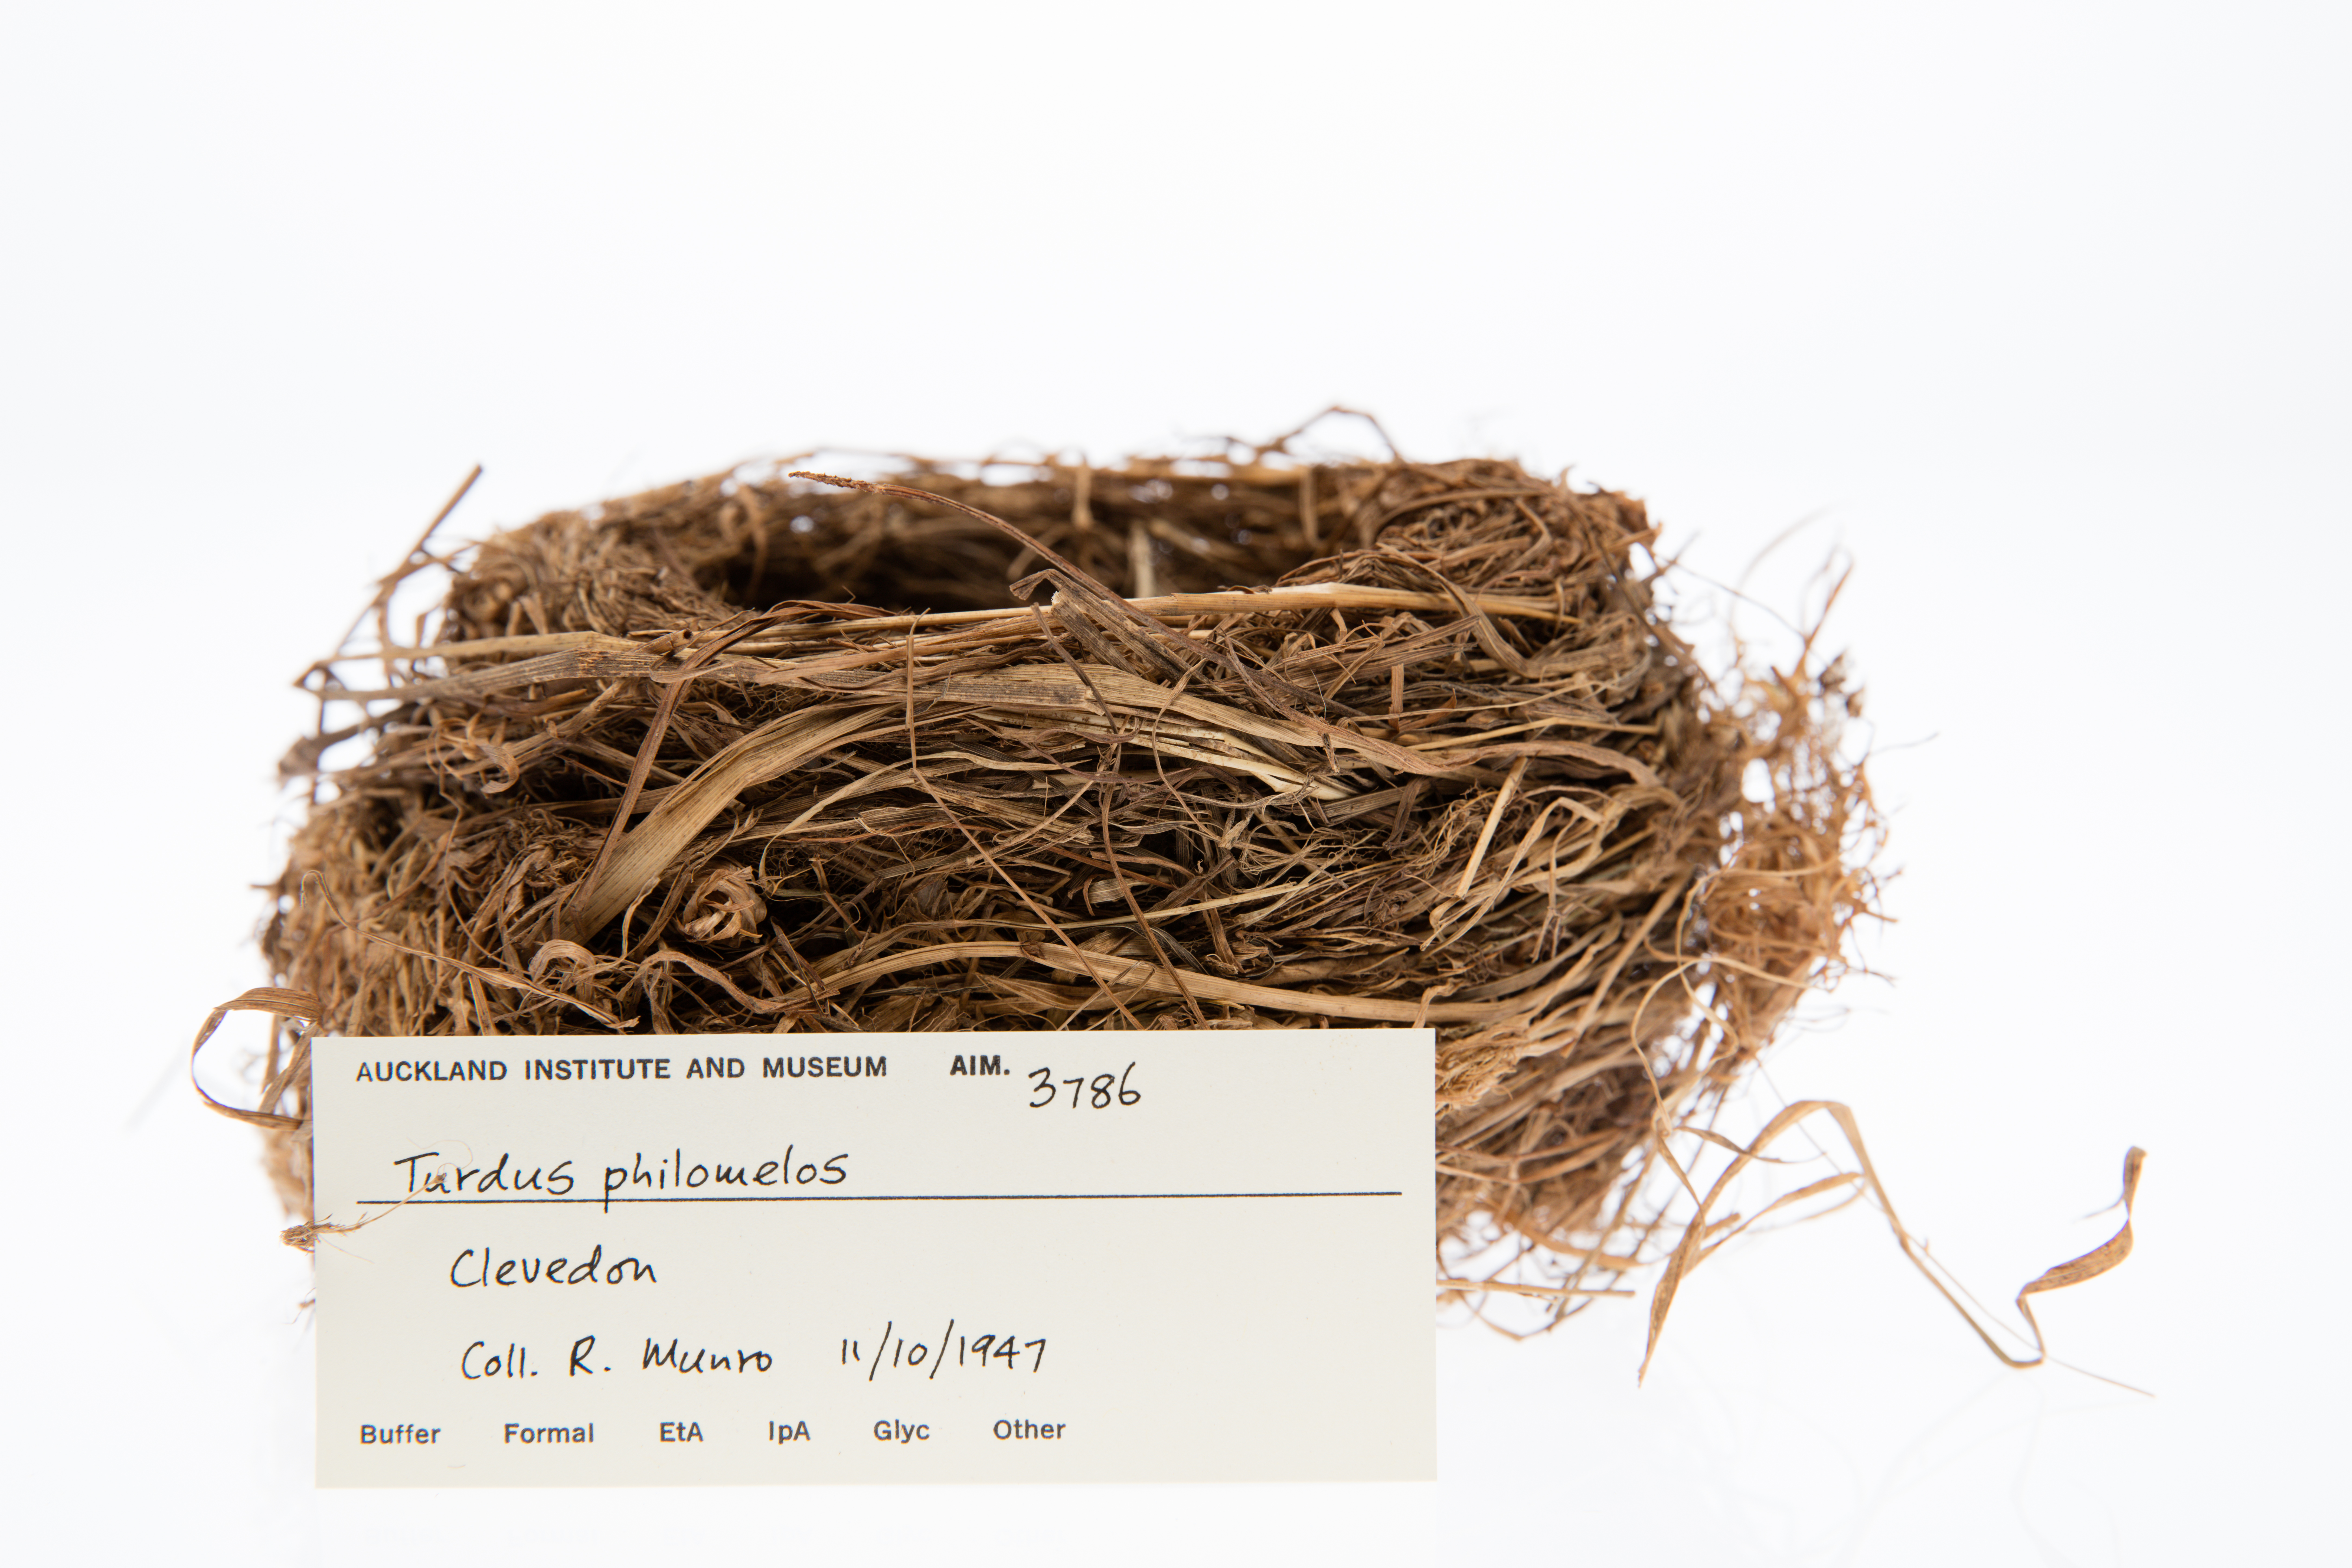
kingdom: Animalia
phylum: Chordata
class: Aves
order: Passeriformes
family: Turdidae
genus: Turdus
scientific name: Turdus philomelos
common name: Song thrush
